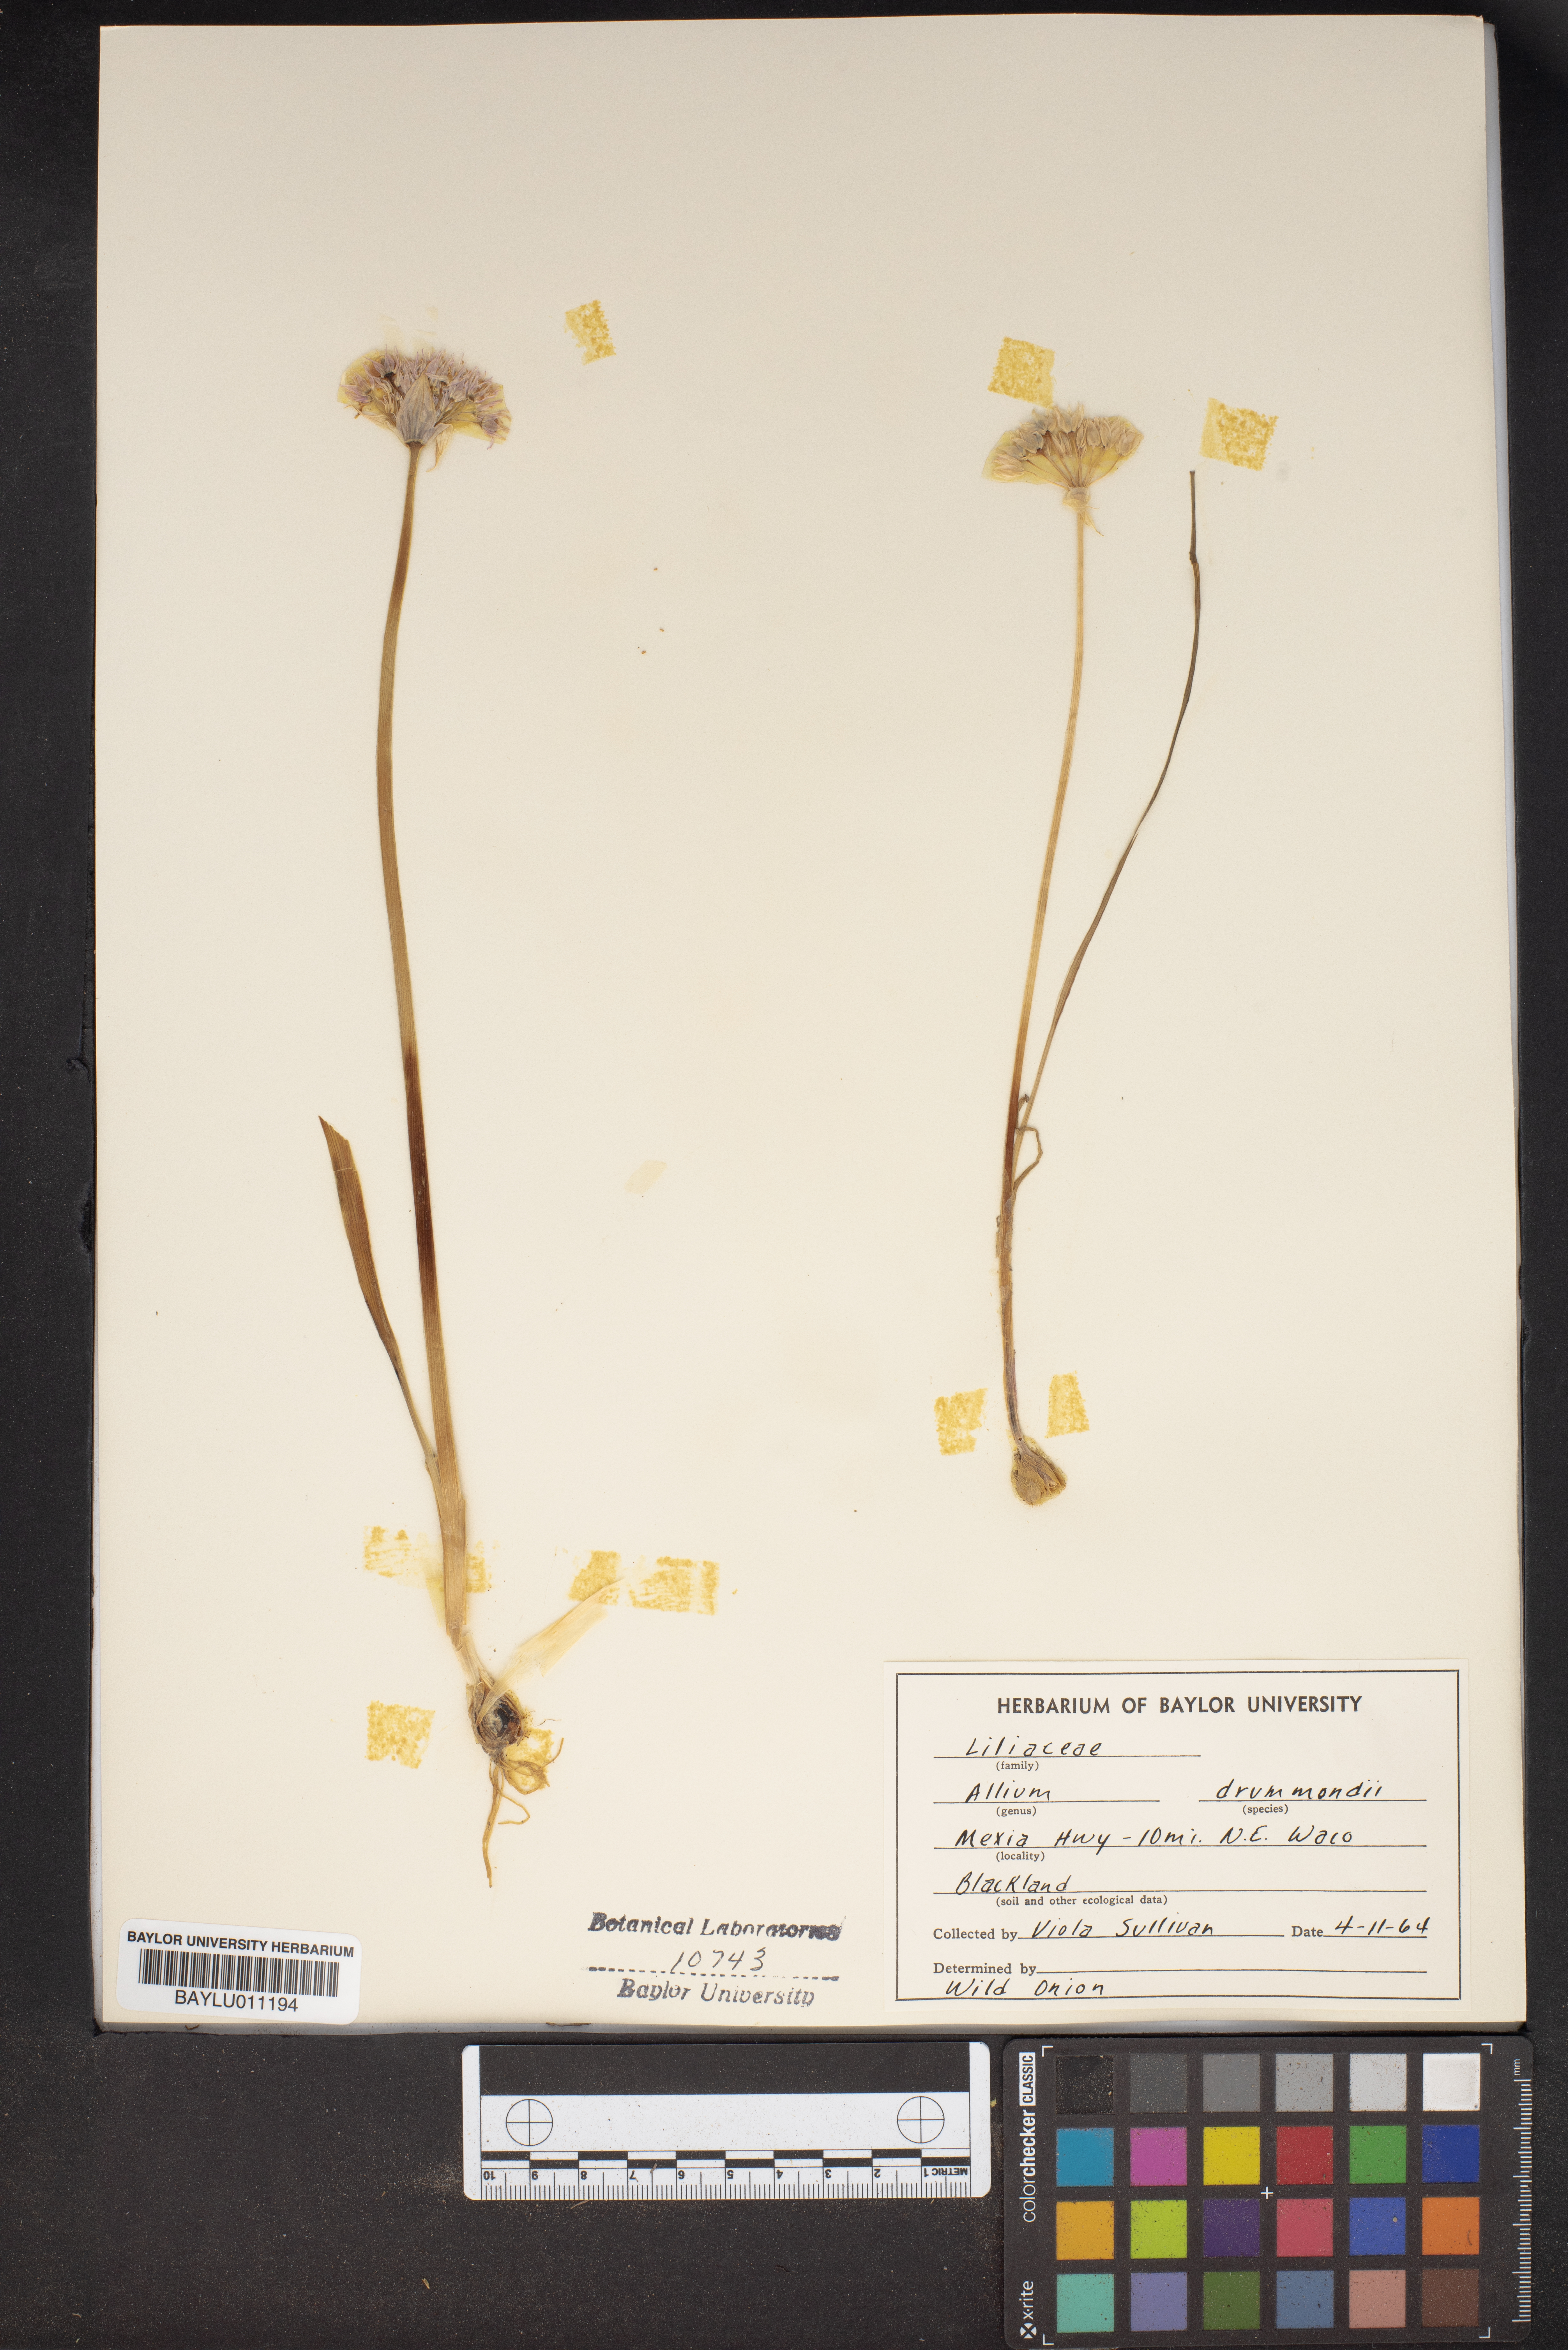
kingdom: Plantae
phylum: Tracheophyta
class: Liliopsida
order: Asparagales
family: Amaryllidaceae
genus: Allium
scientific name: Allium drummondii
